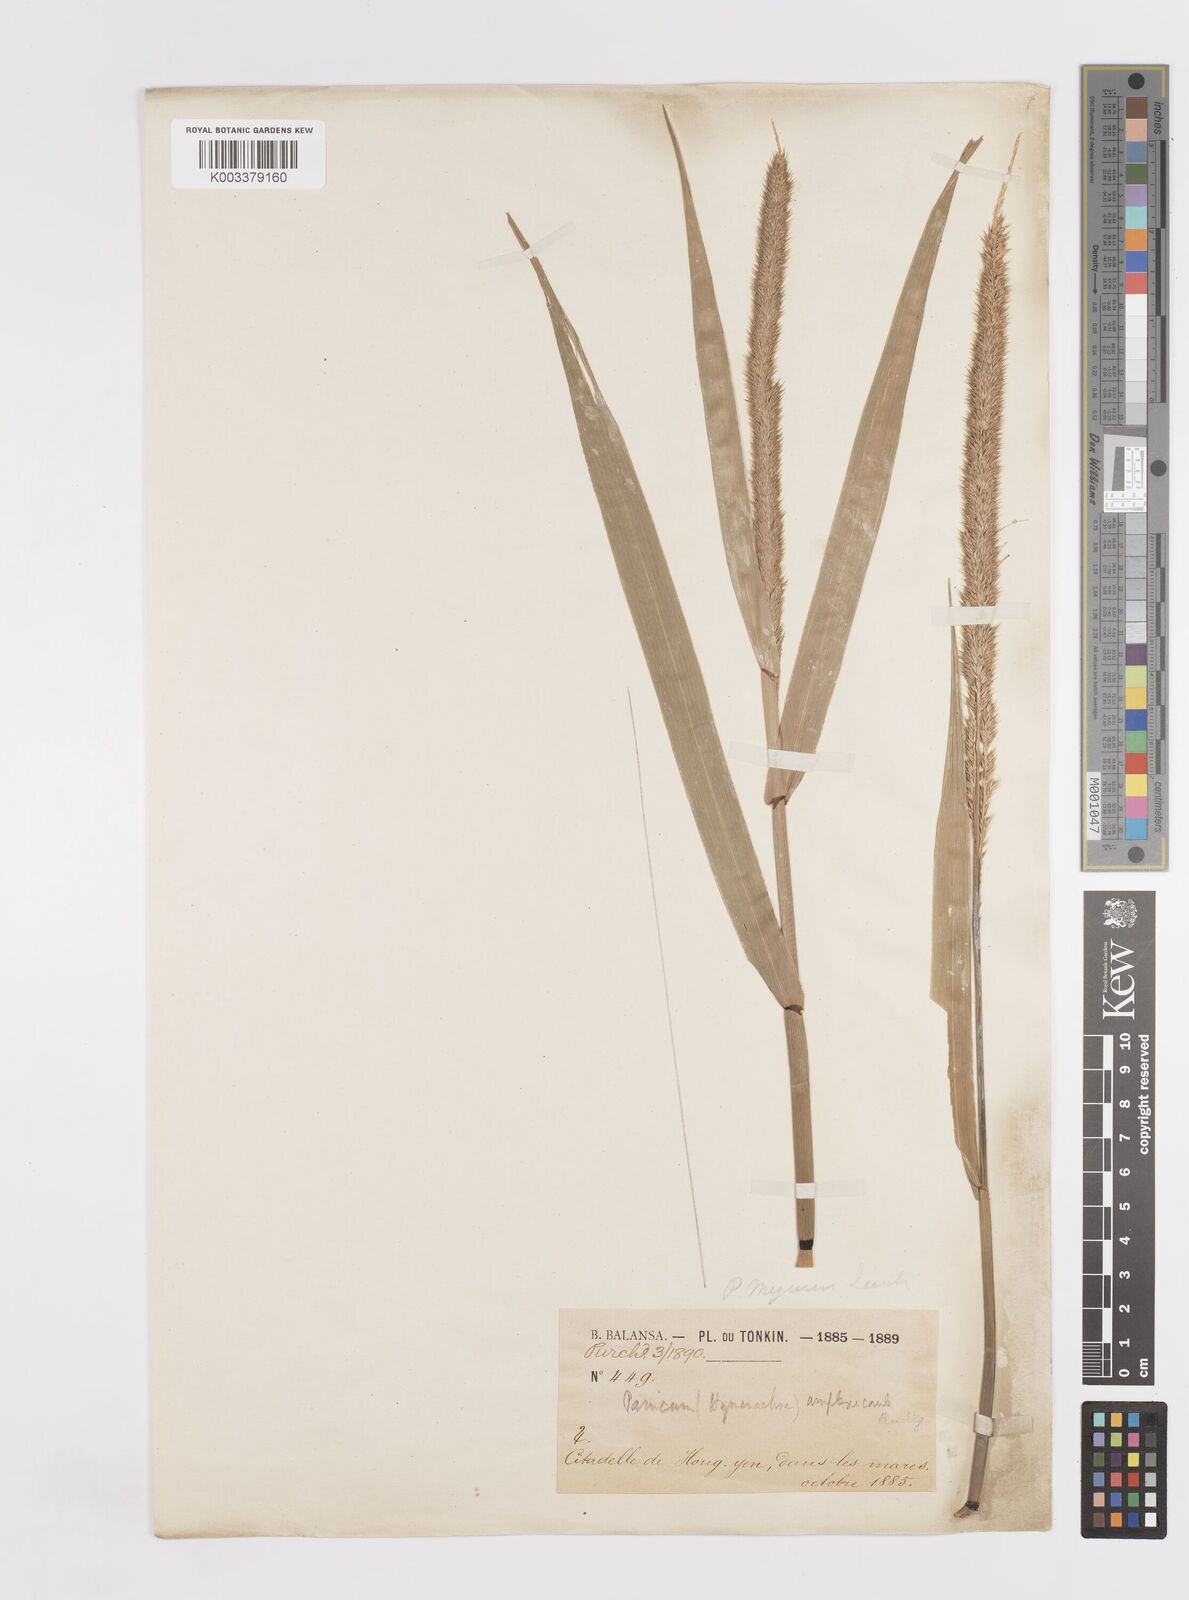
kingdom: Plantae
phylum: Tracheophyta
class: Liliopsida
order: Poales
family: Poaceae
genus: Hymenachne
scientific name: Hymenachne amplexicaulis
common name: Olive hymenachne
